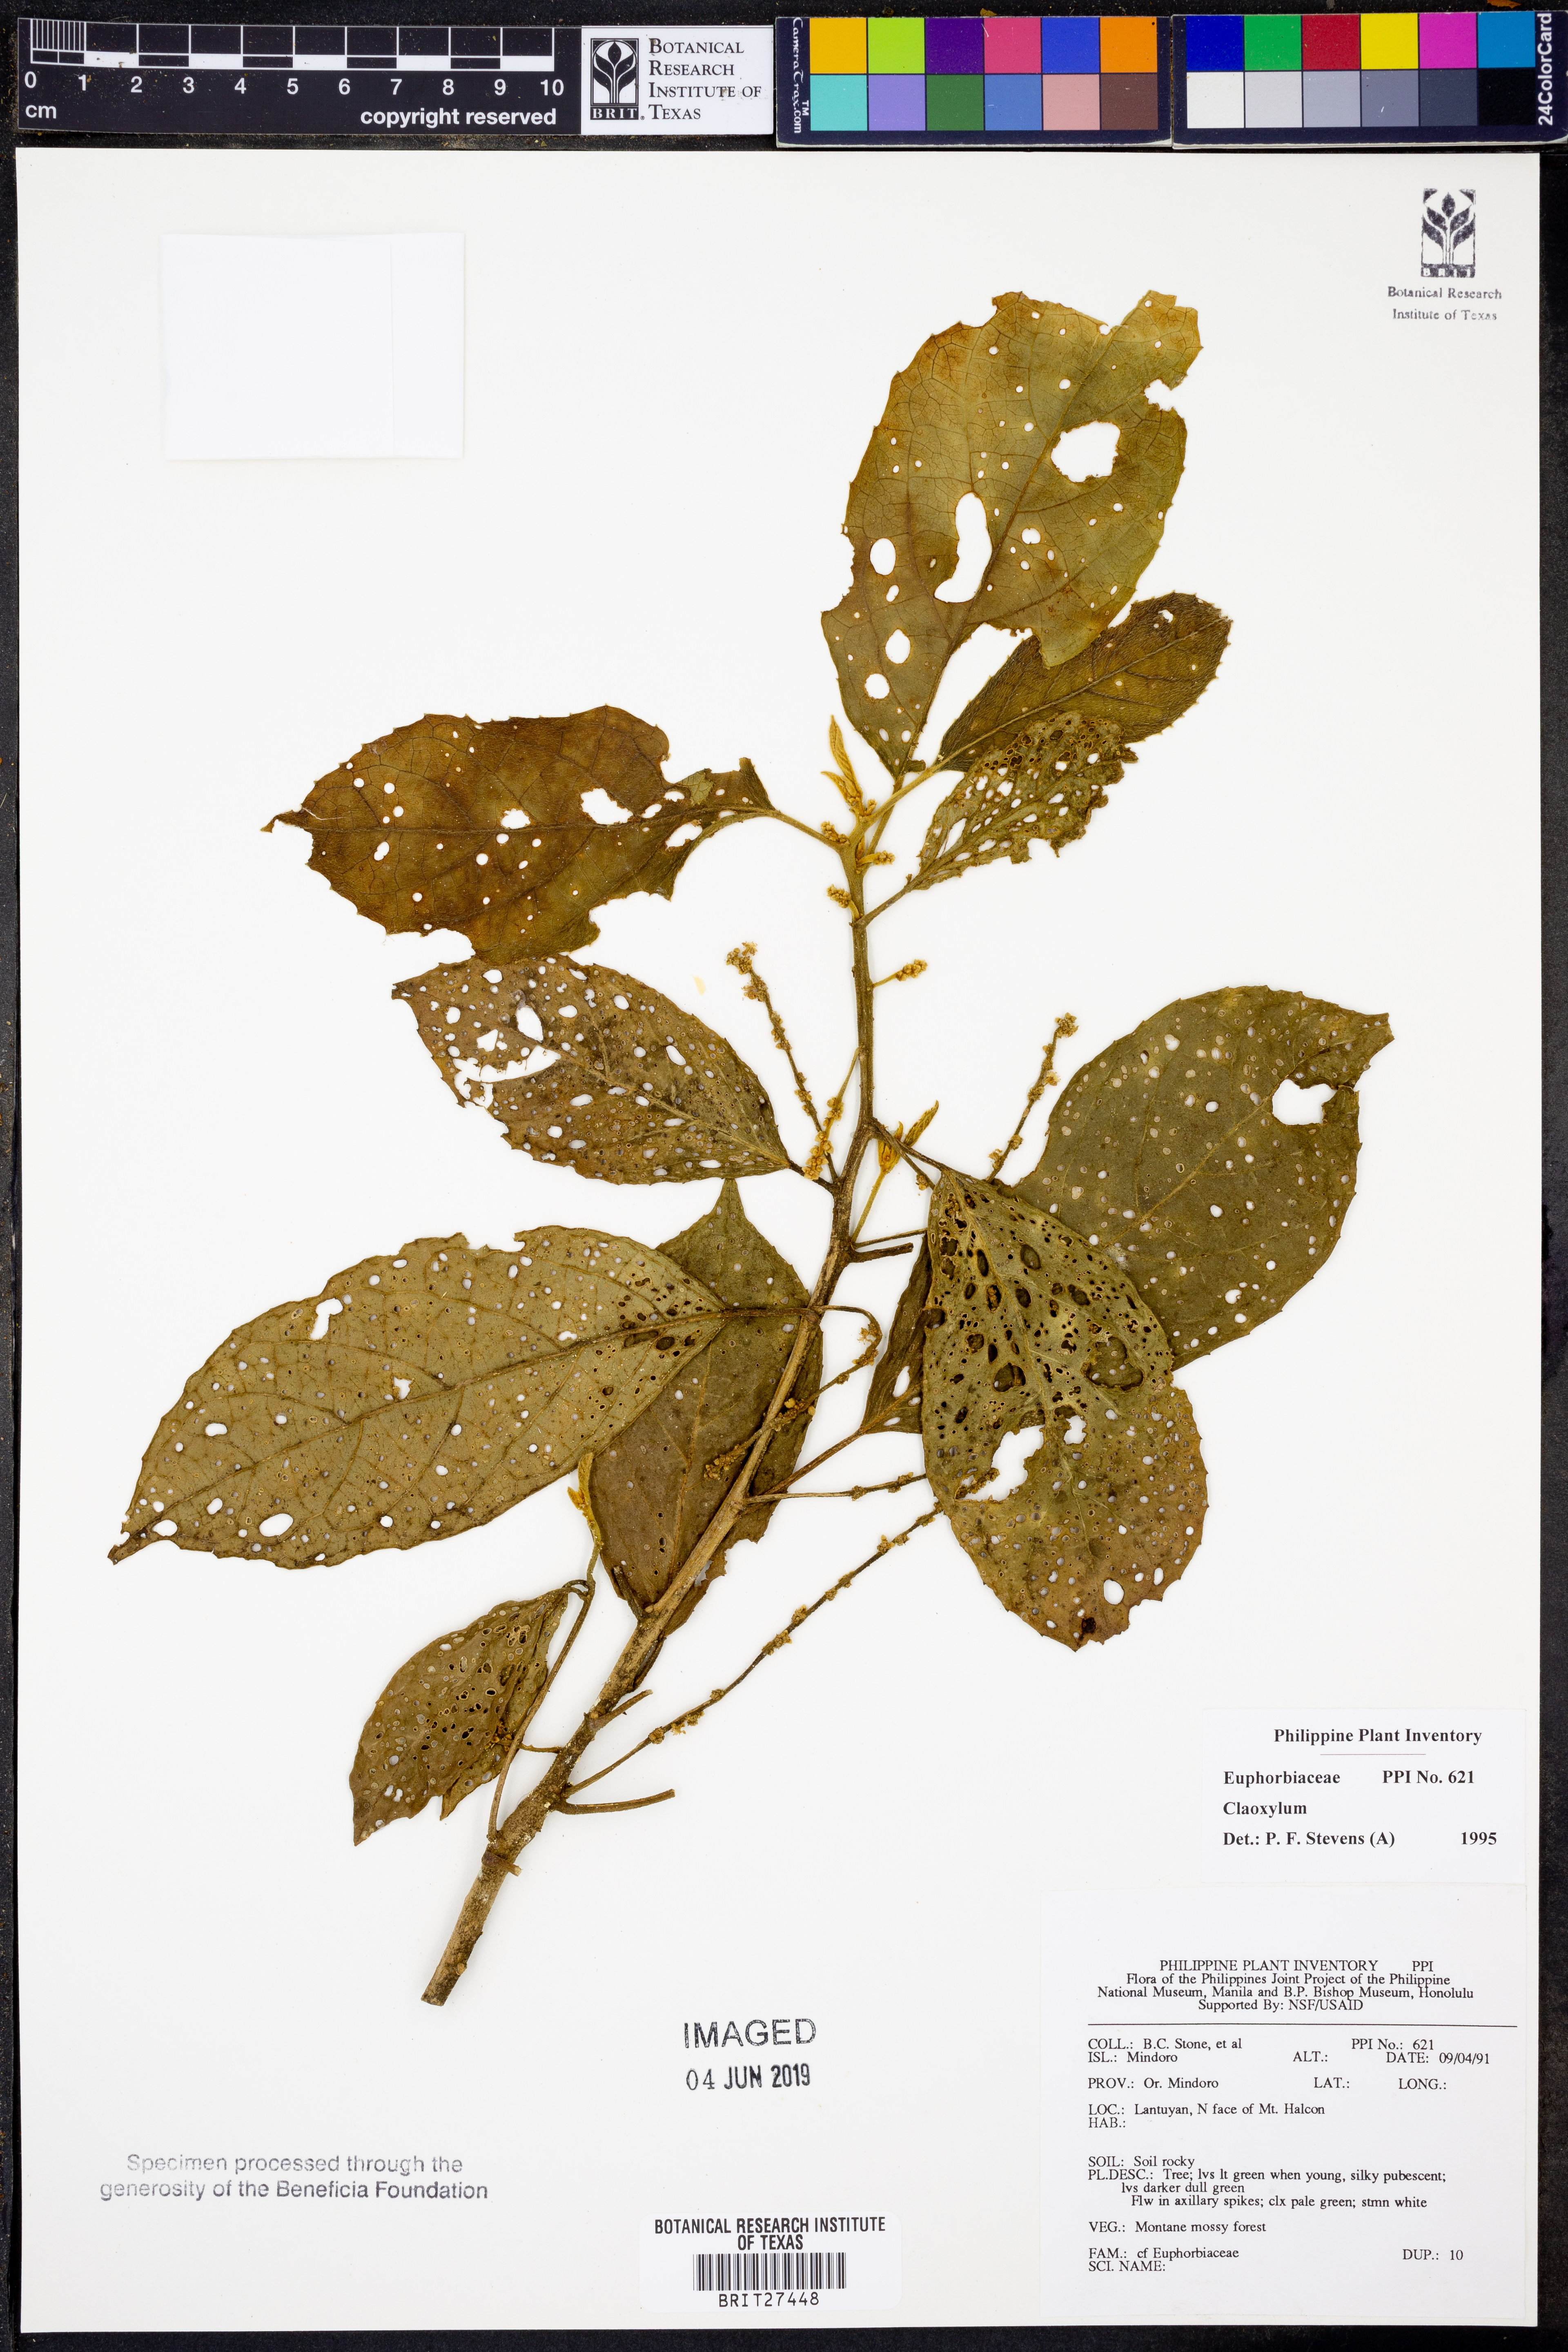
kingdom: Plantae
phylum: Tracheophyta
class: Magnoliopsida
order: Malpighiales
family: Euphorbiaceae
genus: Claoxylon
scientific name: Claoxylon
